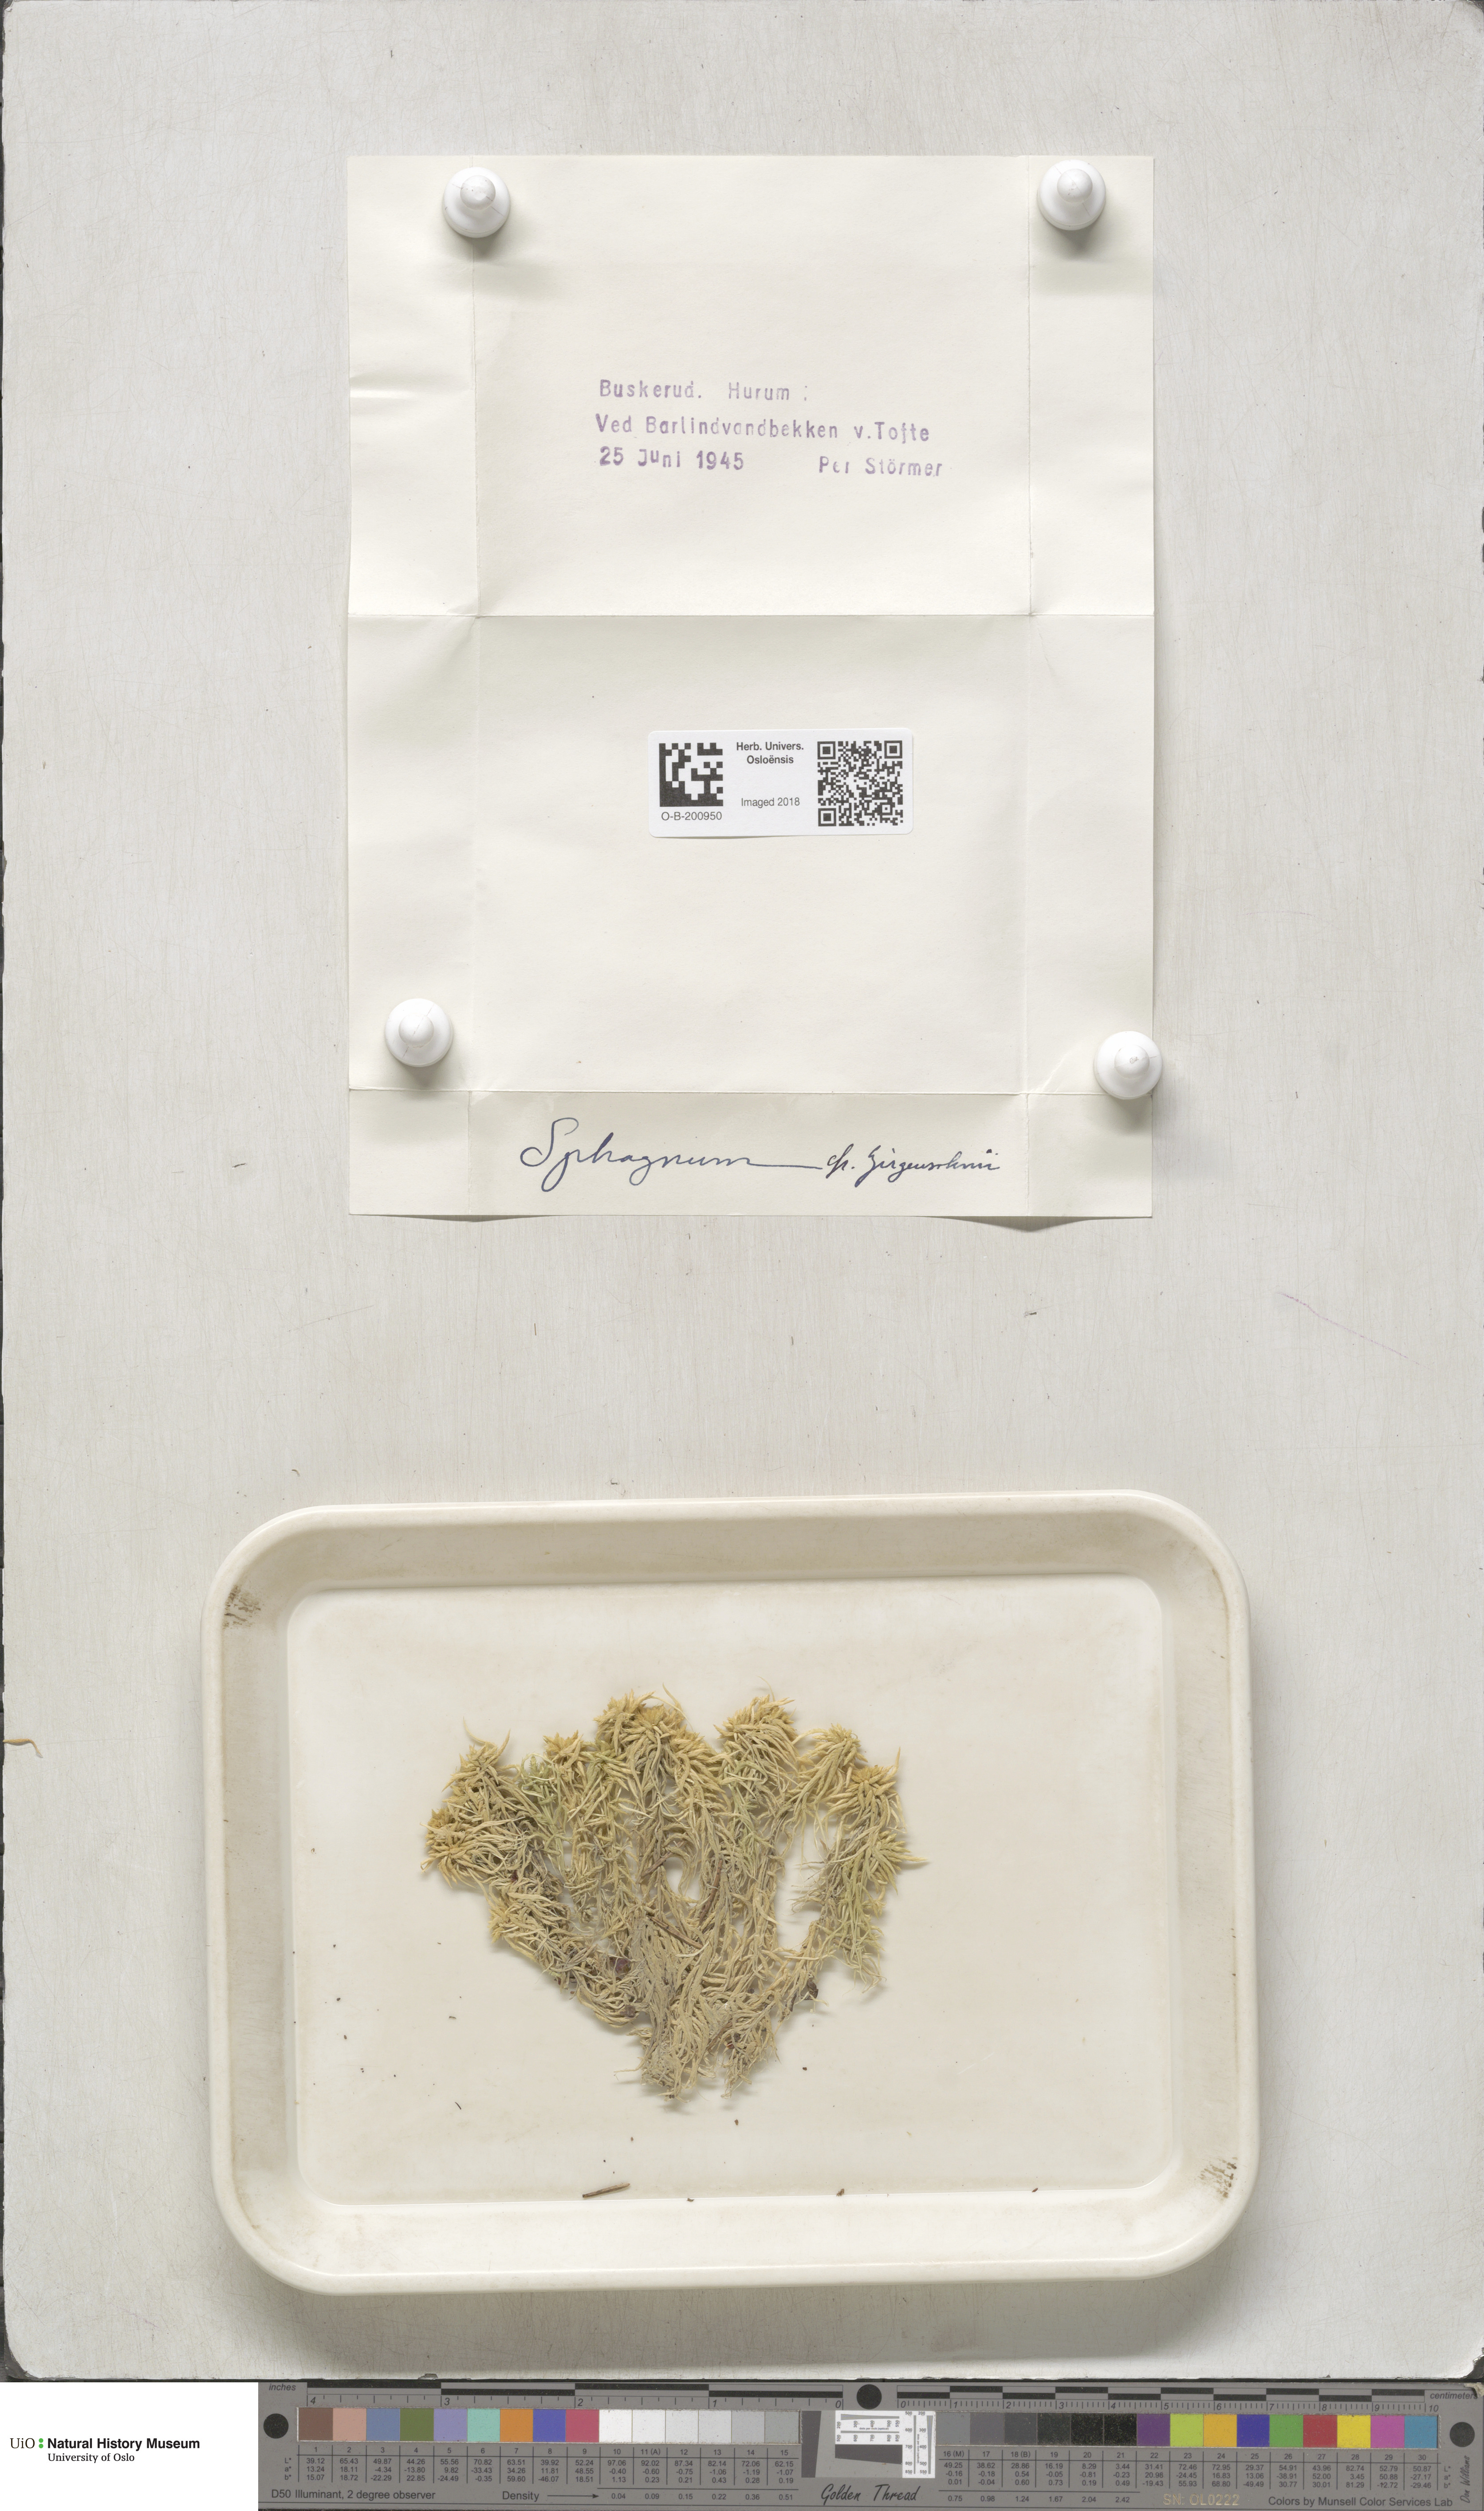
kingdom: Plantae
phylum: Bryophyta
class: Sphagnopsida
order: Sphagnales
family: Sphagnaceae
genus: Sphagnum
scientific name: Sphagnum girgensohnii
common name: Girgensohn's peat moss
